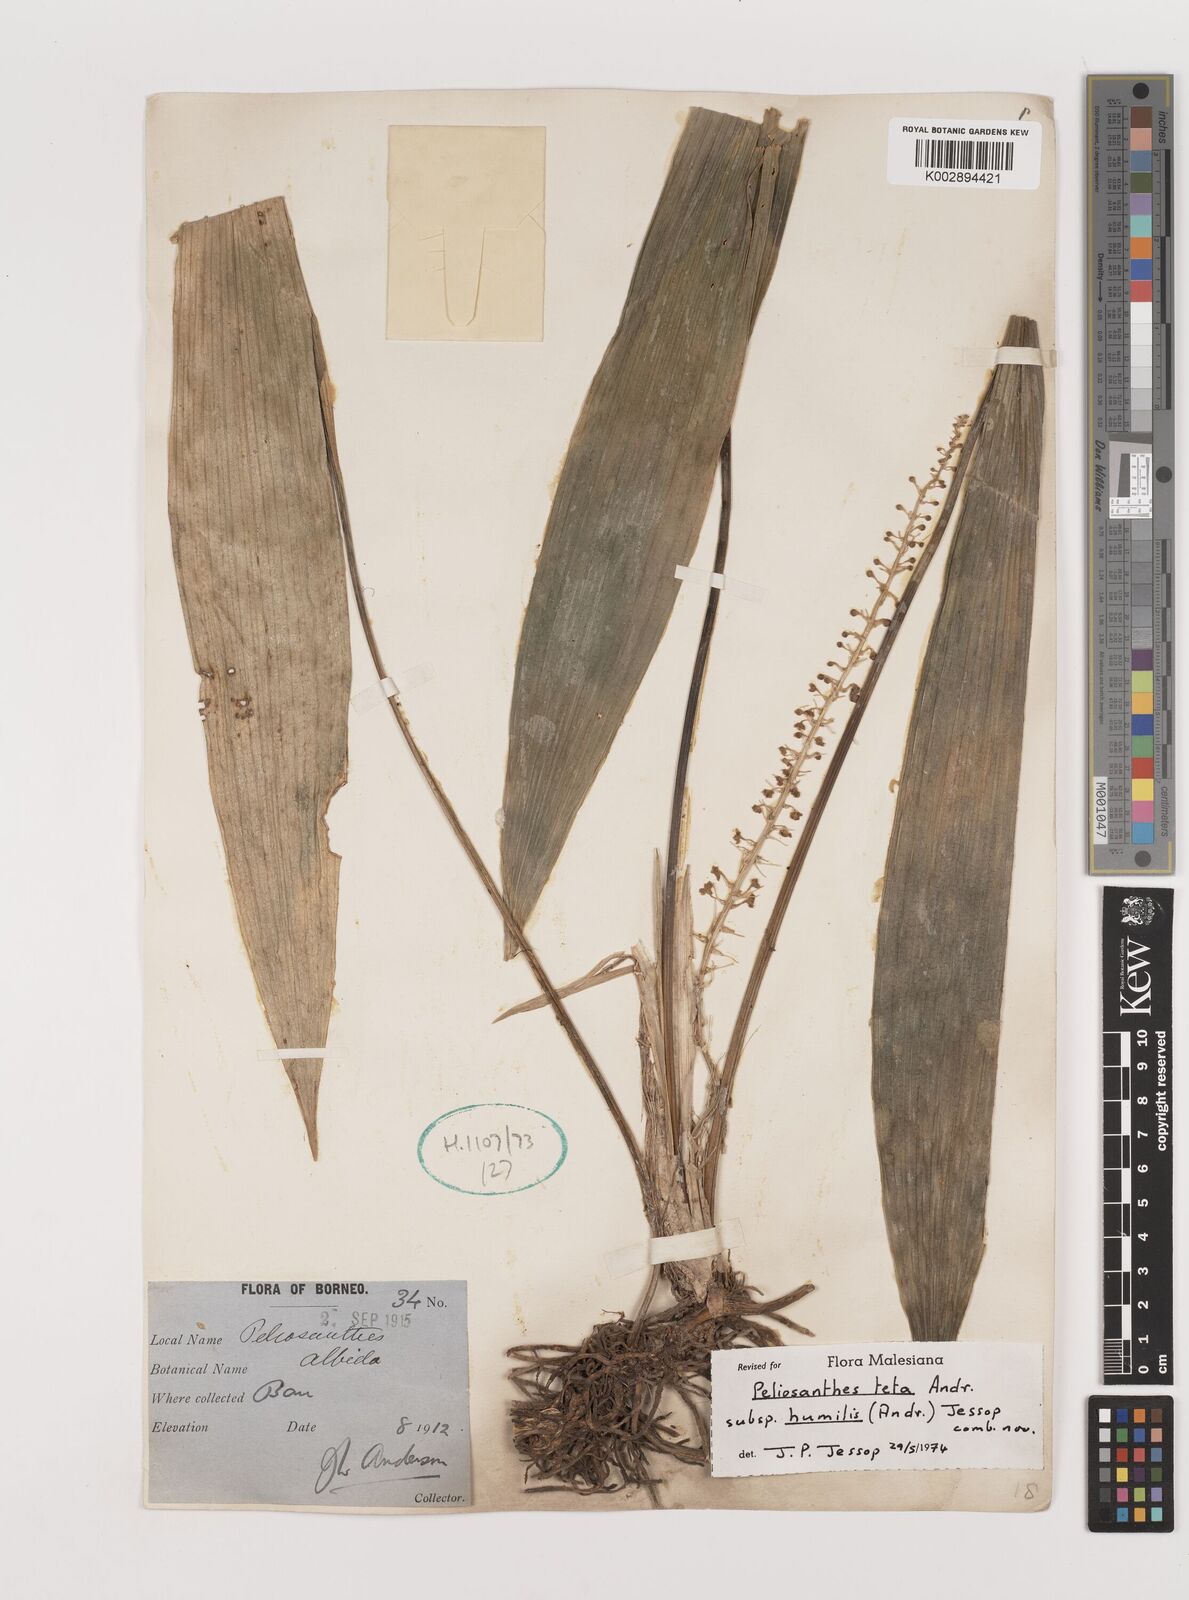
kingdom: Plantae
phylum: Tracheophyta
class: Liliopsida
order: Asparagales
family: Asparagaceae
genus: Peliosanthes
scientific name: Peliosanthes teta
